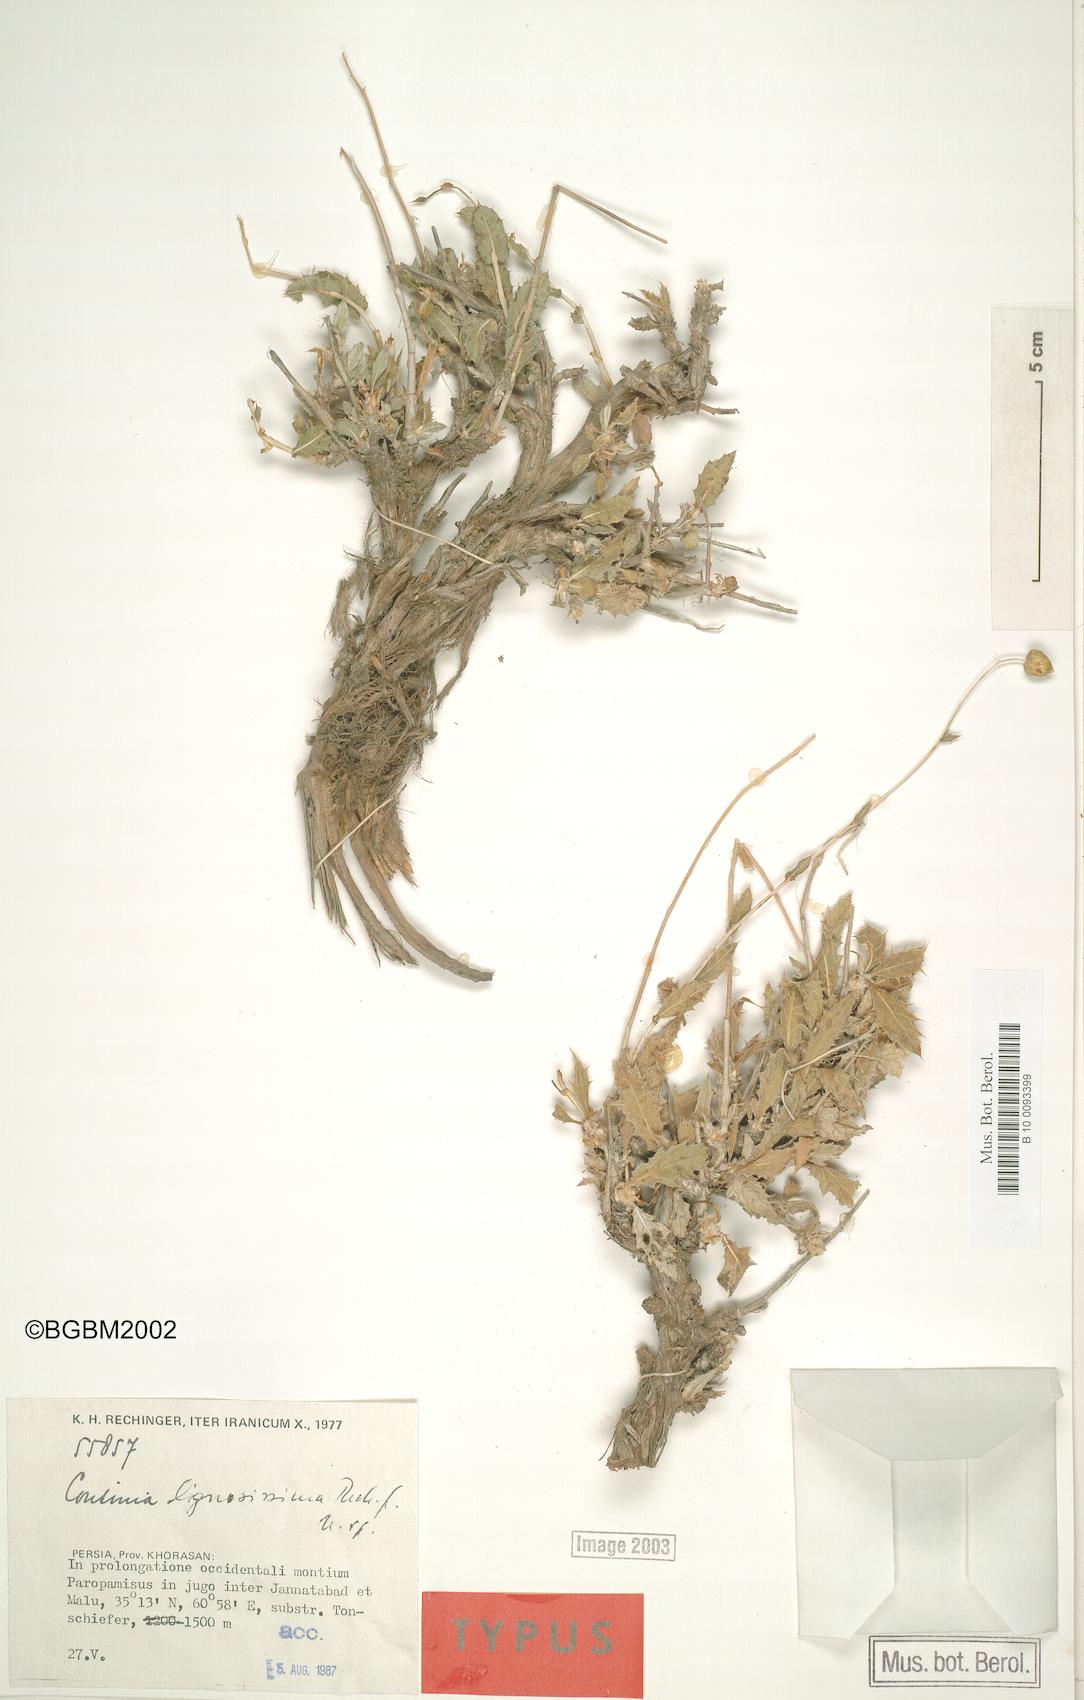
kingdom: Plantae
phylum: Tracheophyta
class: Magnoliopsida
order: Asterales
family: Asteraceae
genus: Cousinia
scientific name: Cousinia lignosissima
